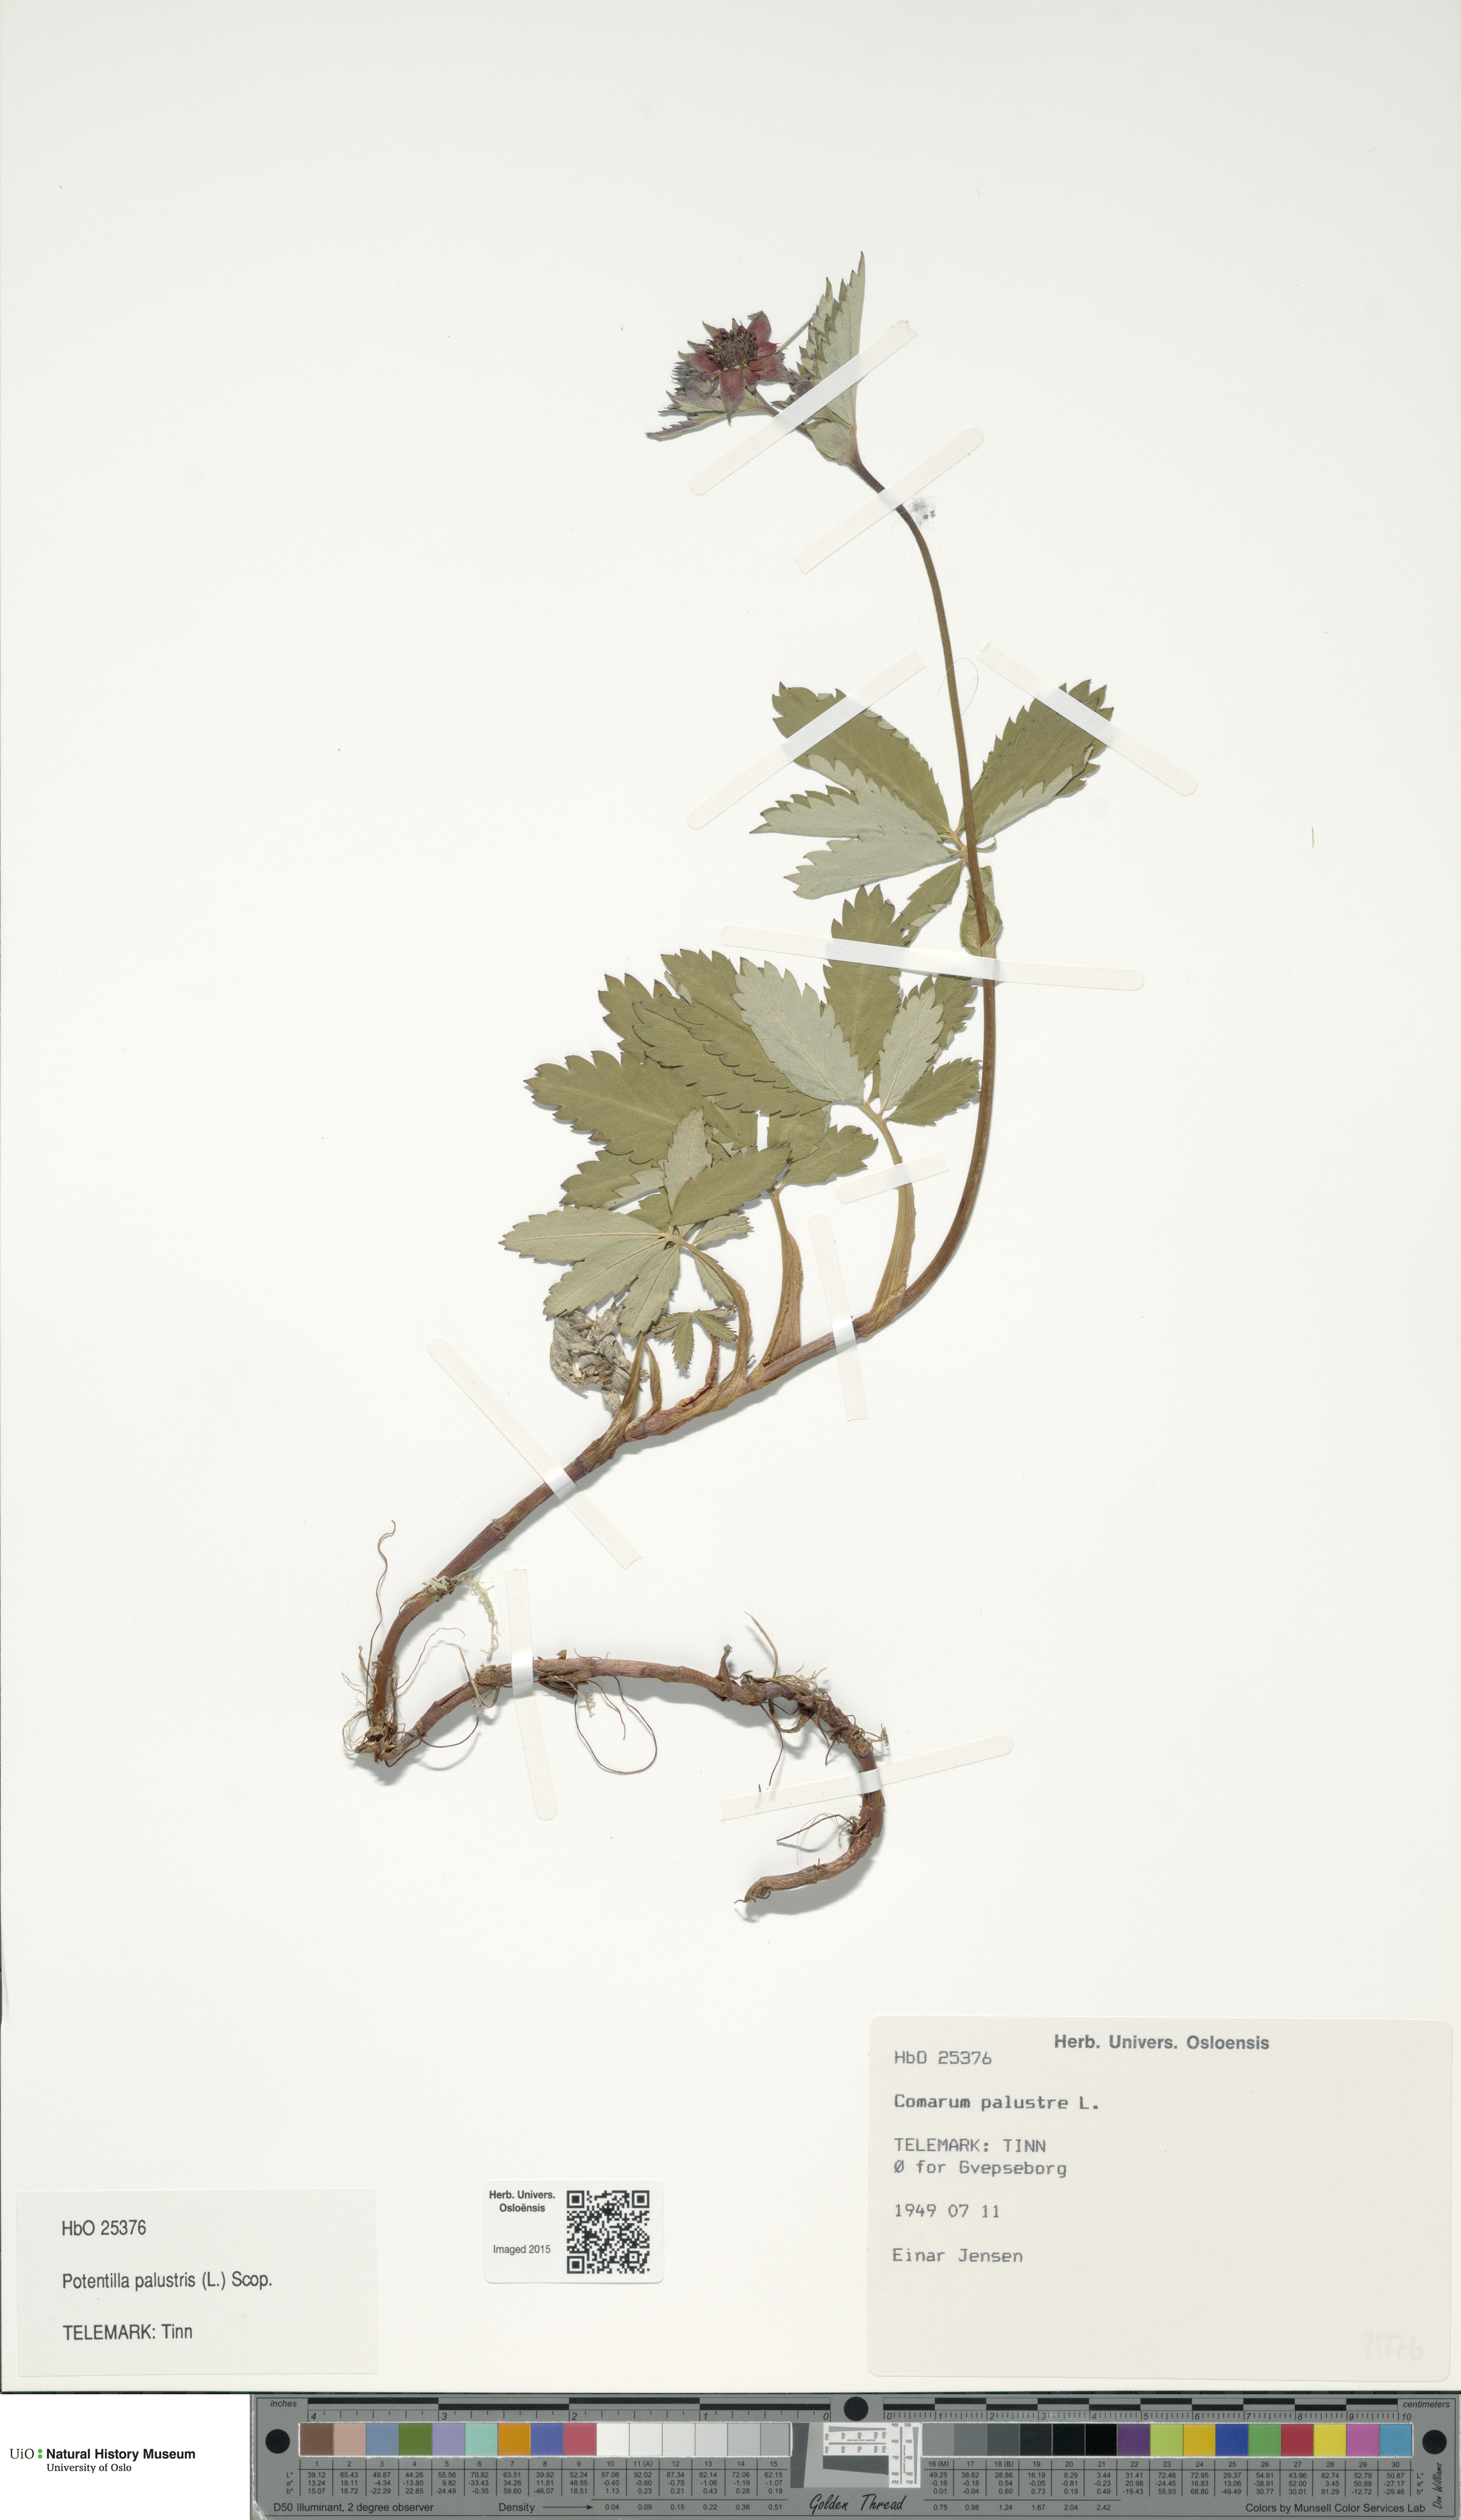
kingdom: Plantae
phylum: Tracheophyta
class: Magnoliopsida
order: Rosales
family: Rosaceae
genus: Comarum
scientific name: Comarum palustre
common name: Marsh cinquefoil
